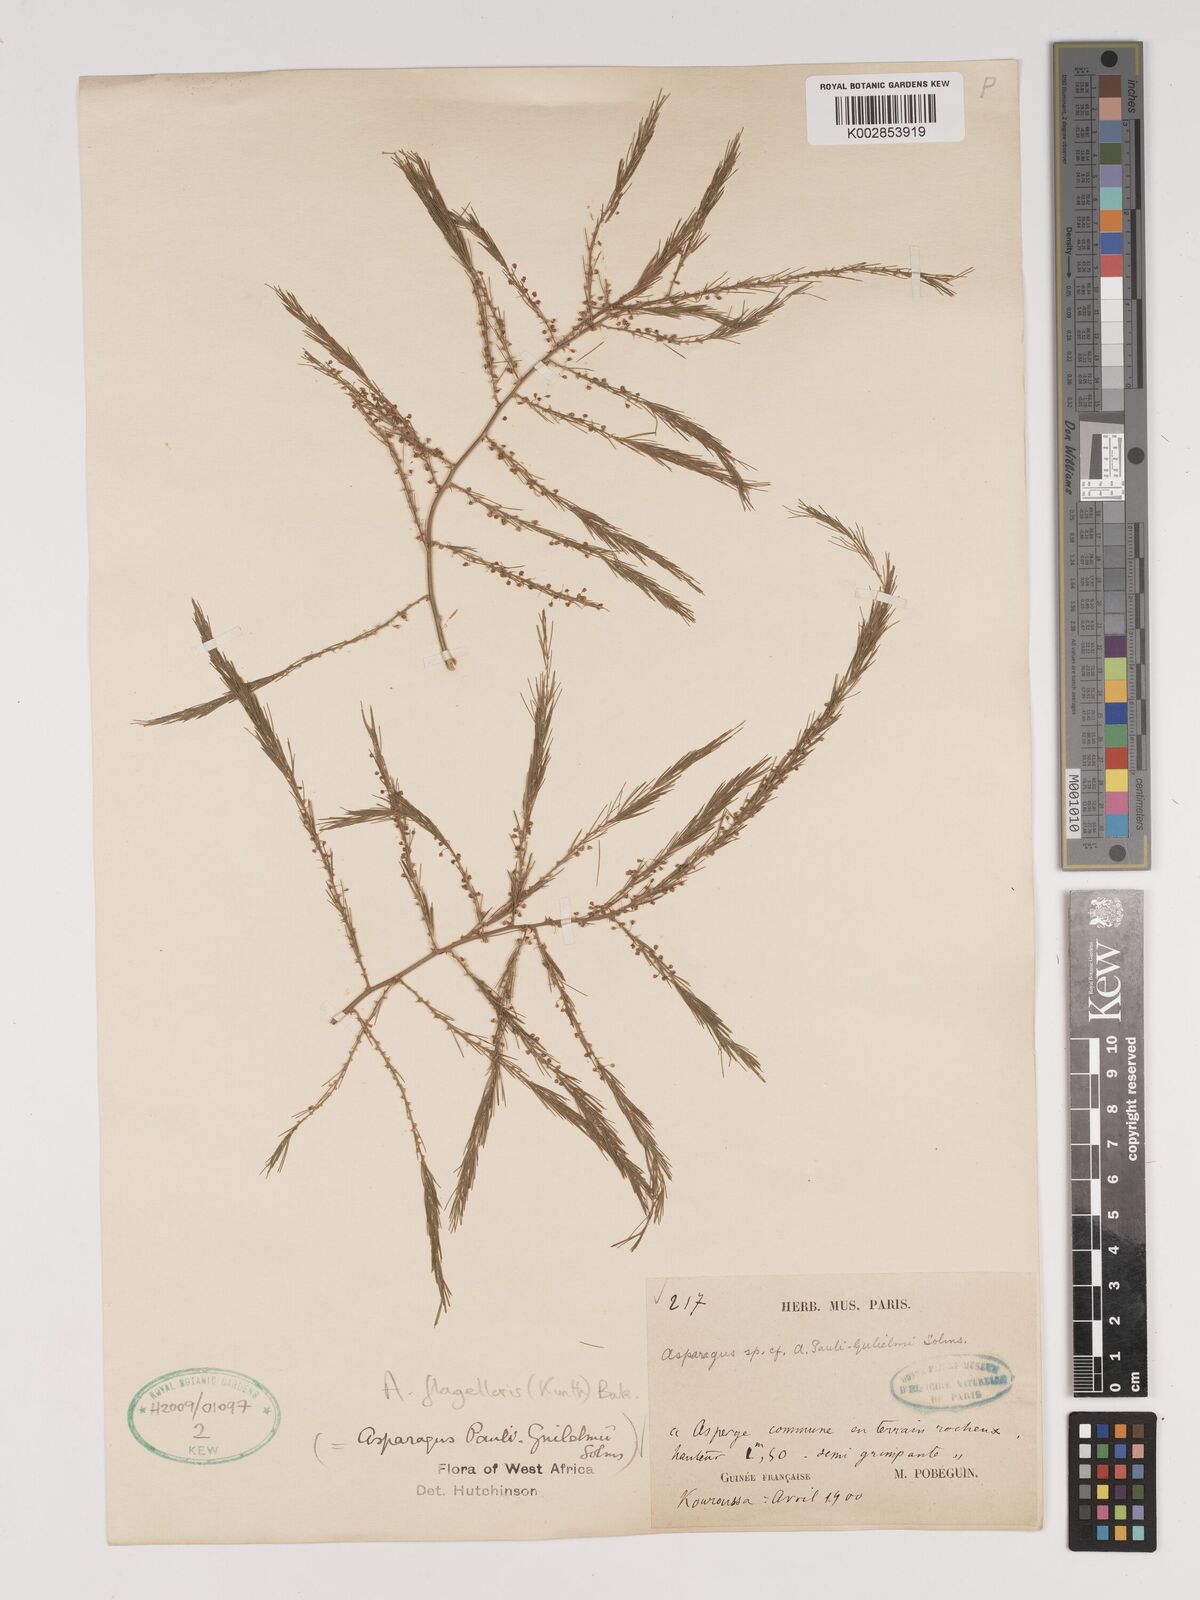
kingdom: Plantae
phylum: Tracheophyta
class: Liliopsida
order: Asparagales
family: Asparagaceae
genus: Asparagus
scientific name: Asparagus flagellaris
